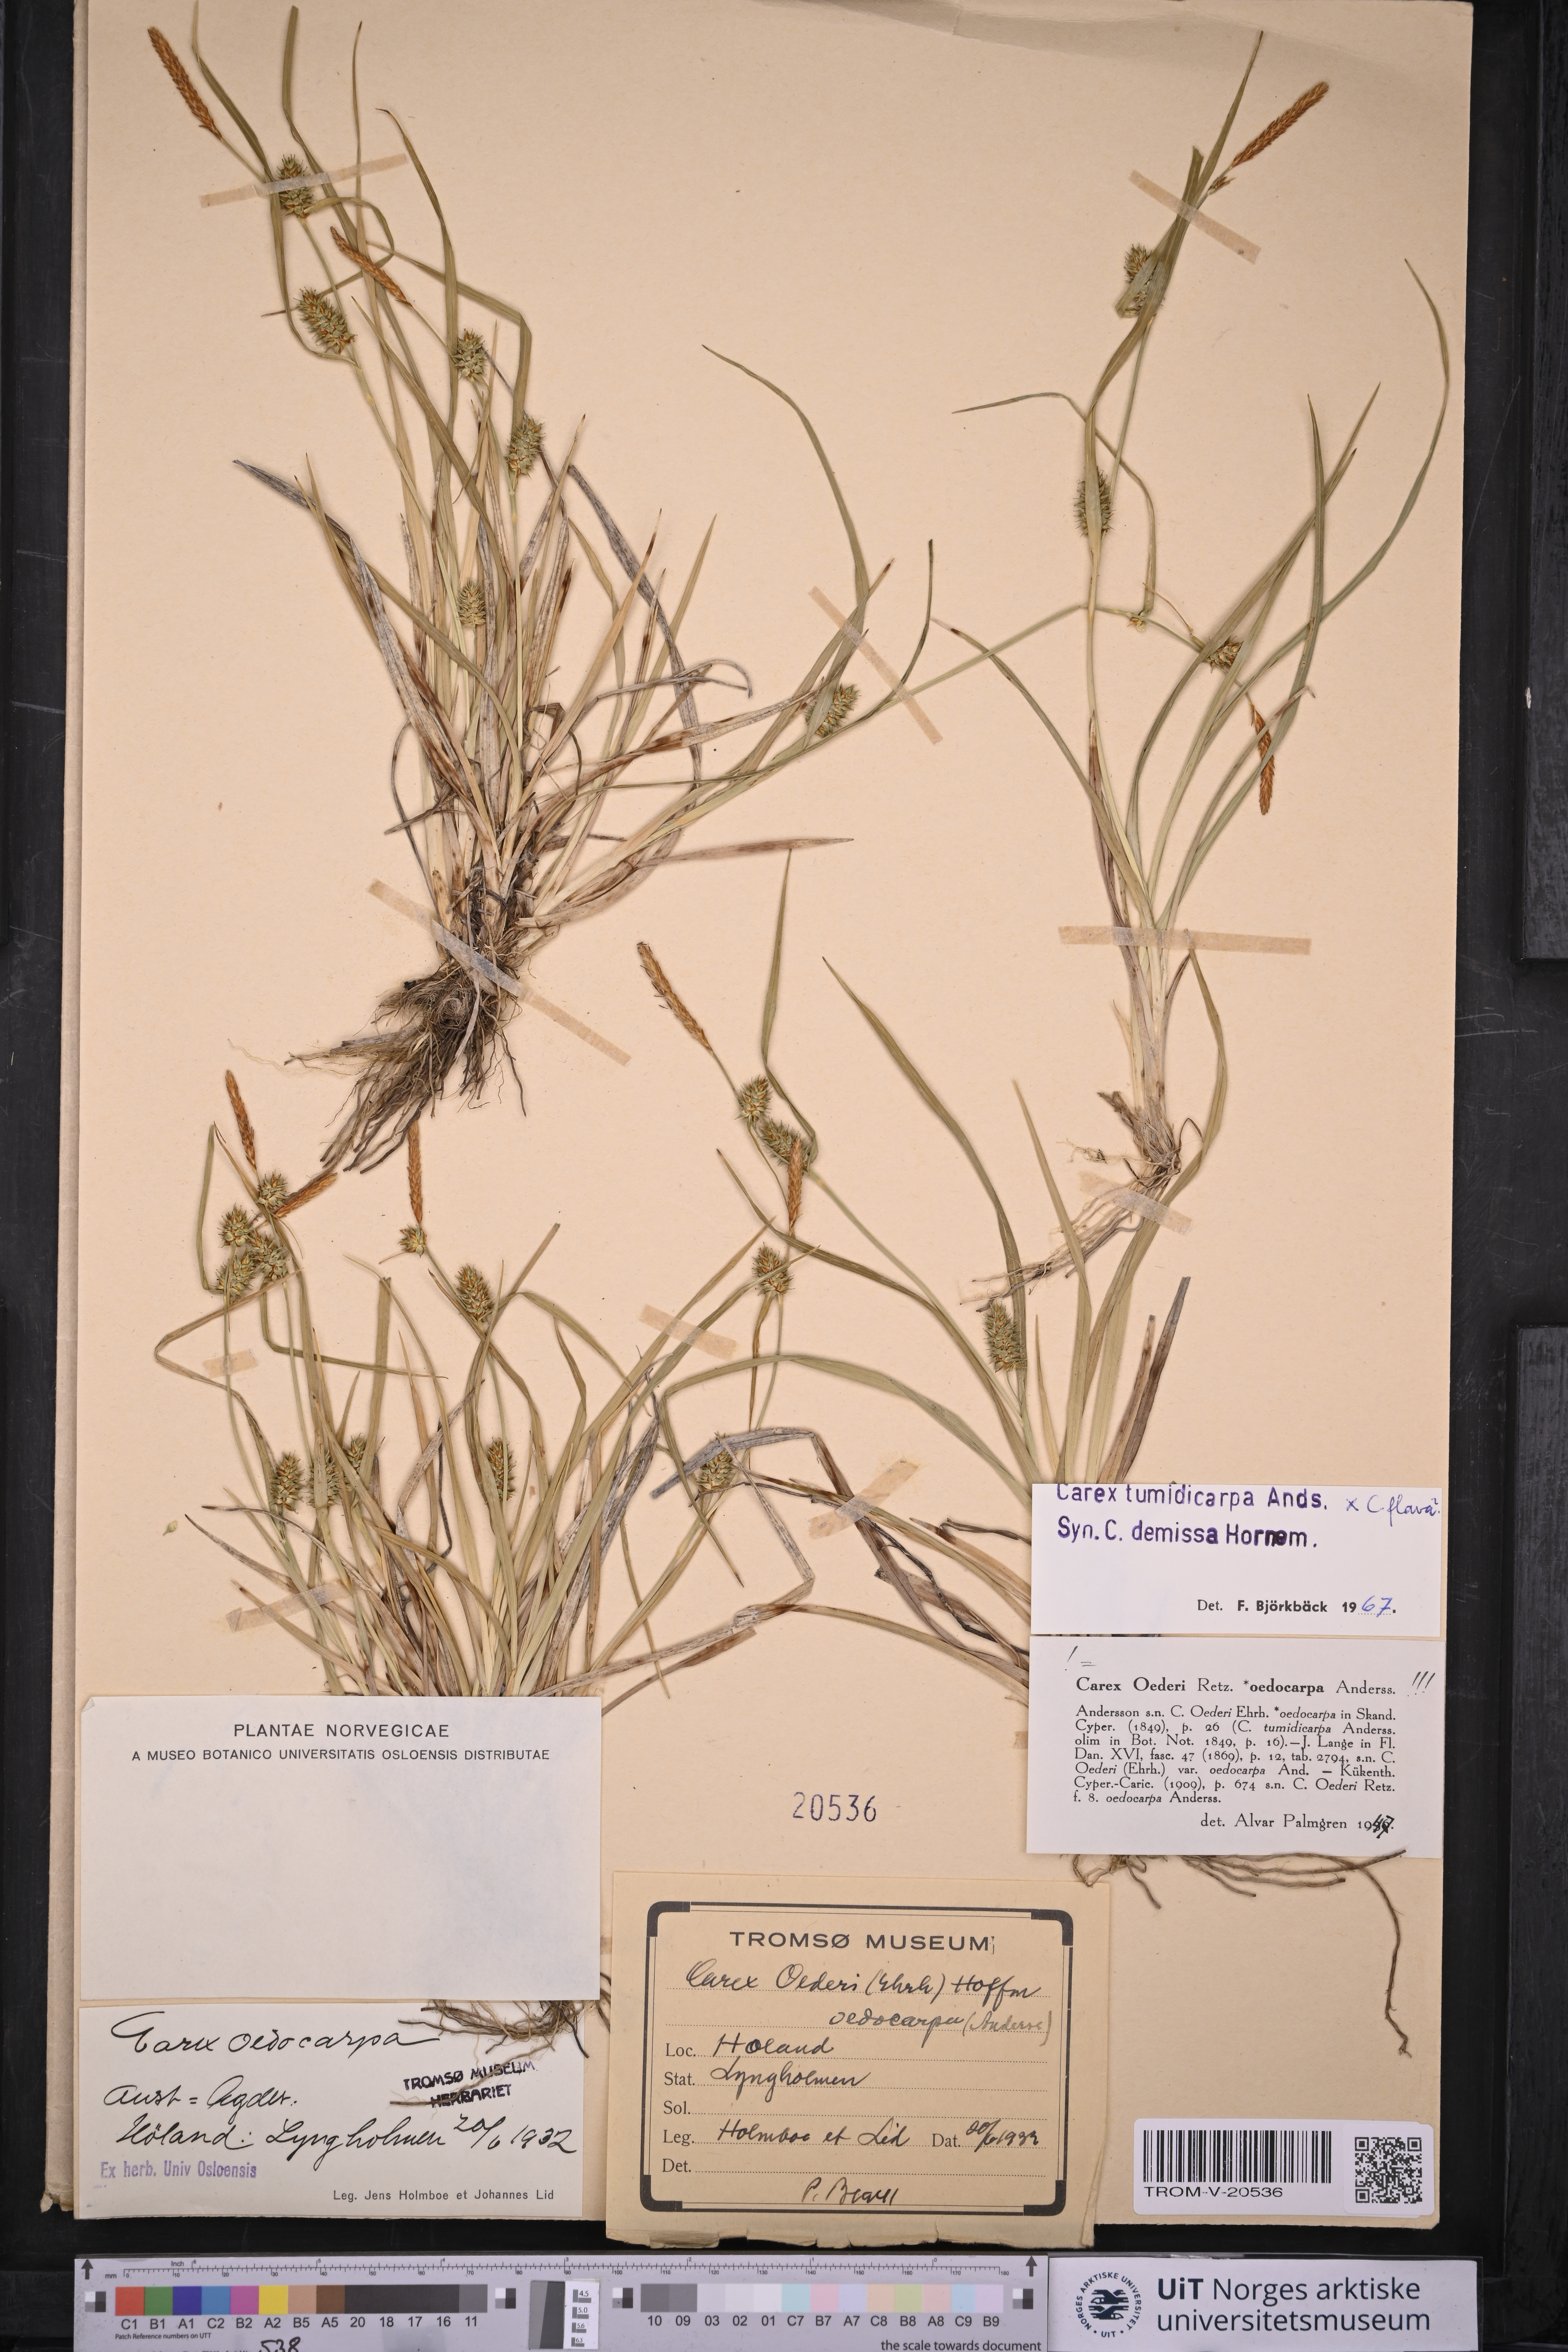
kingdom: Plantae
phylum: Tracheophyta
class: Liliopsida
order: Poales
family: Cyperaceae
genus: Carex
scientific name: Carex demissa
